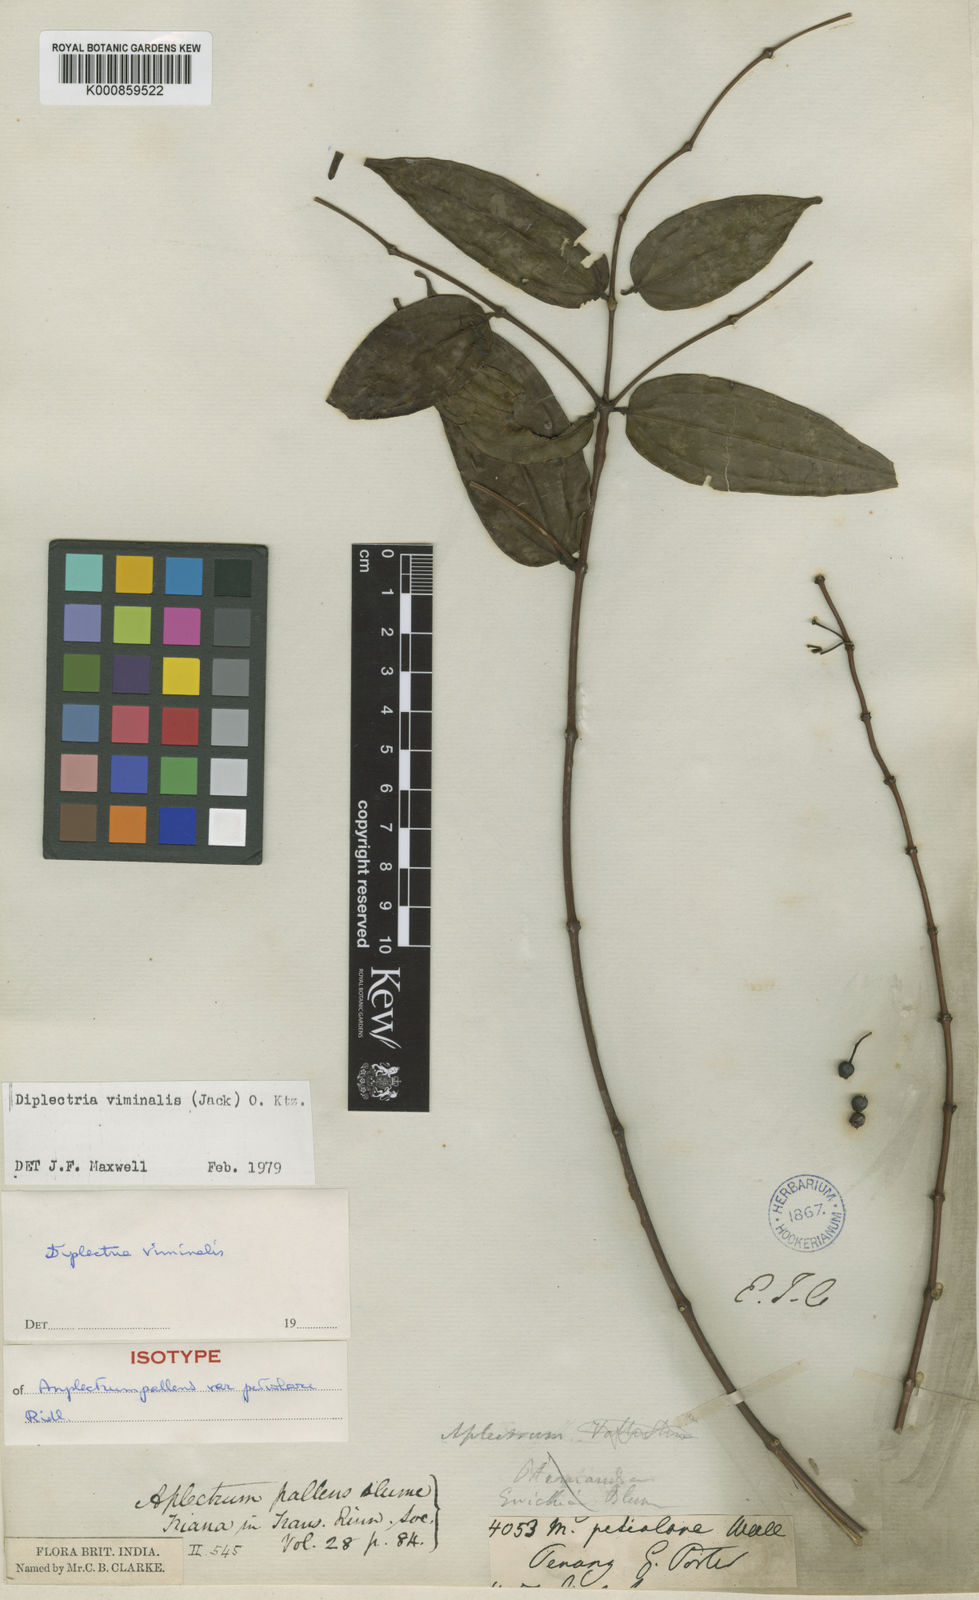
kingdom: Plantae
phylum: Tracheophyta
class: Magnoliopsida
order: Myrtales
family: Melastomataceae
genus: Diplectria
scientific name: Diplectria viminalis
